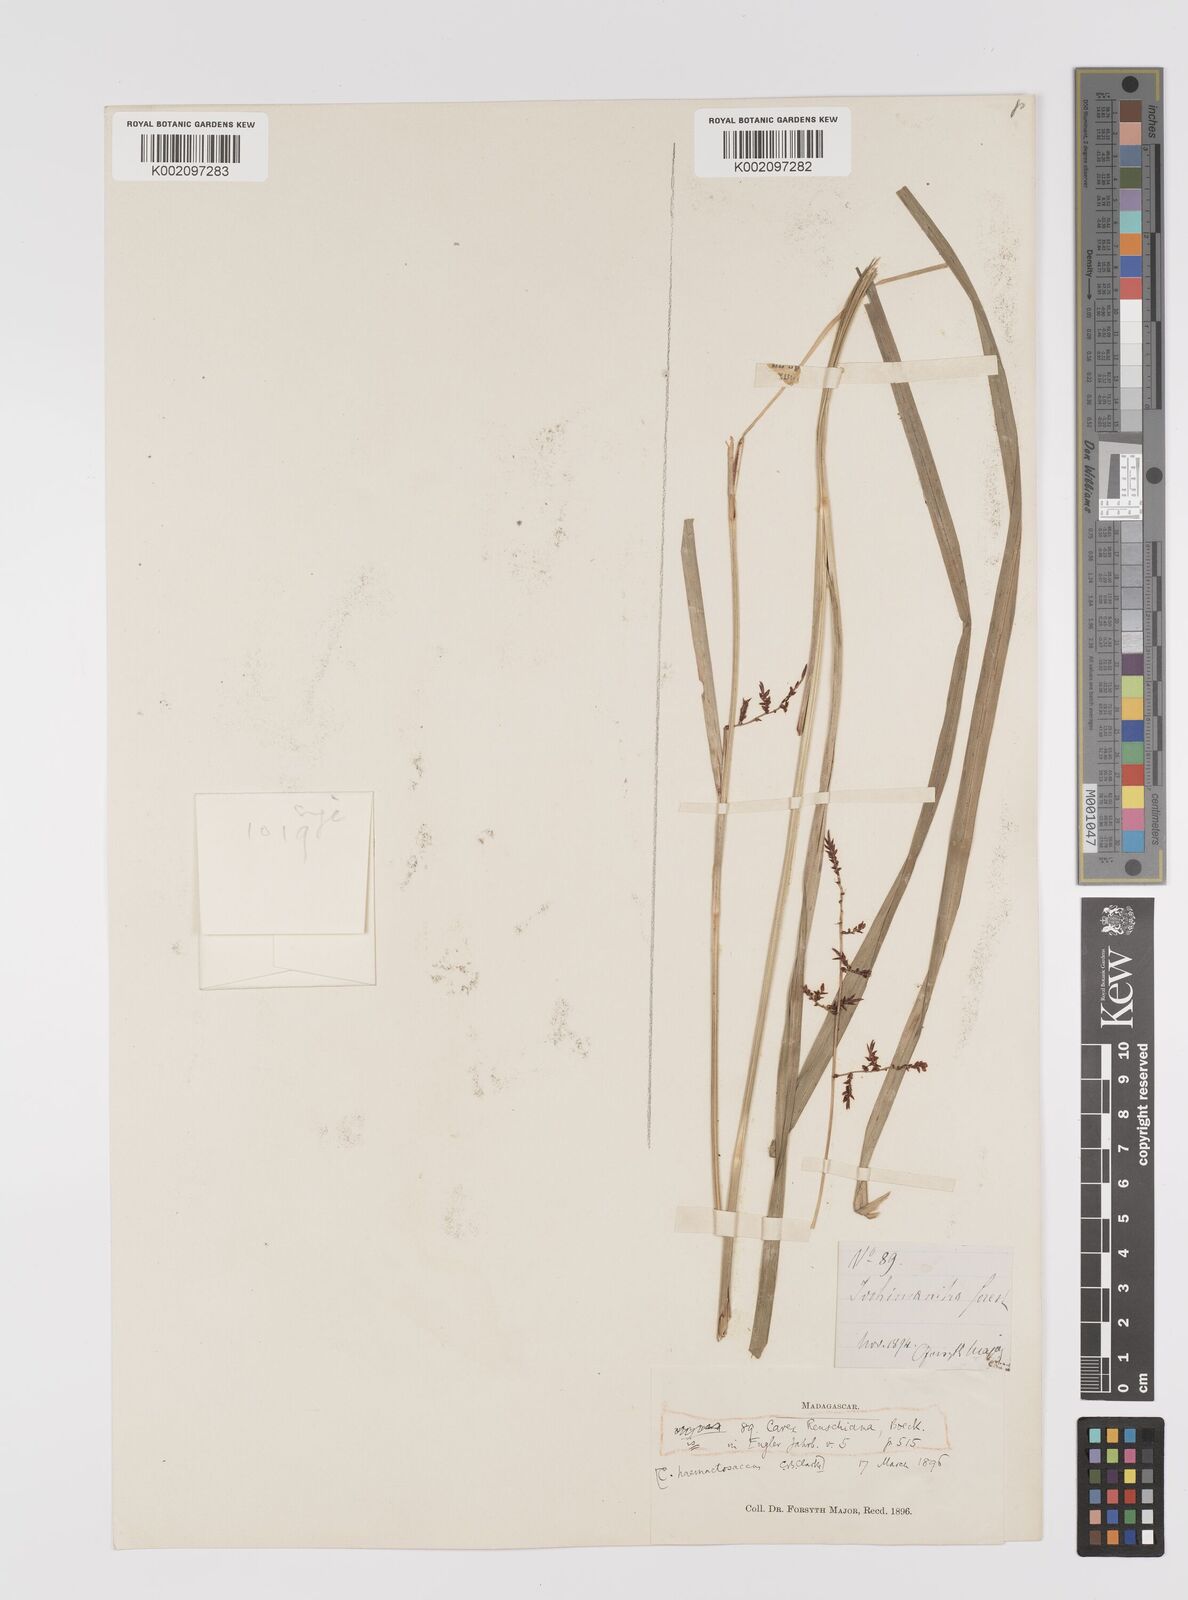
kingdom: Plantae
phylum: Tracheophyta
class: Liliopsida
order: Poales
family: Cyperaceae
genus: Carex
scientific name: Carex renschiana
